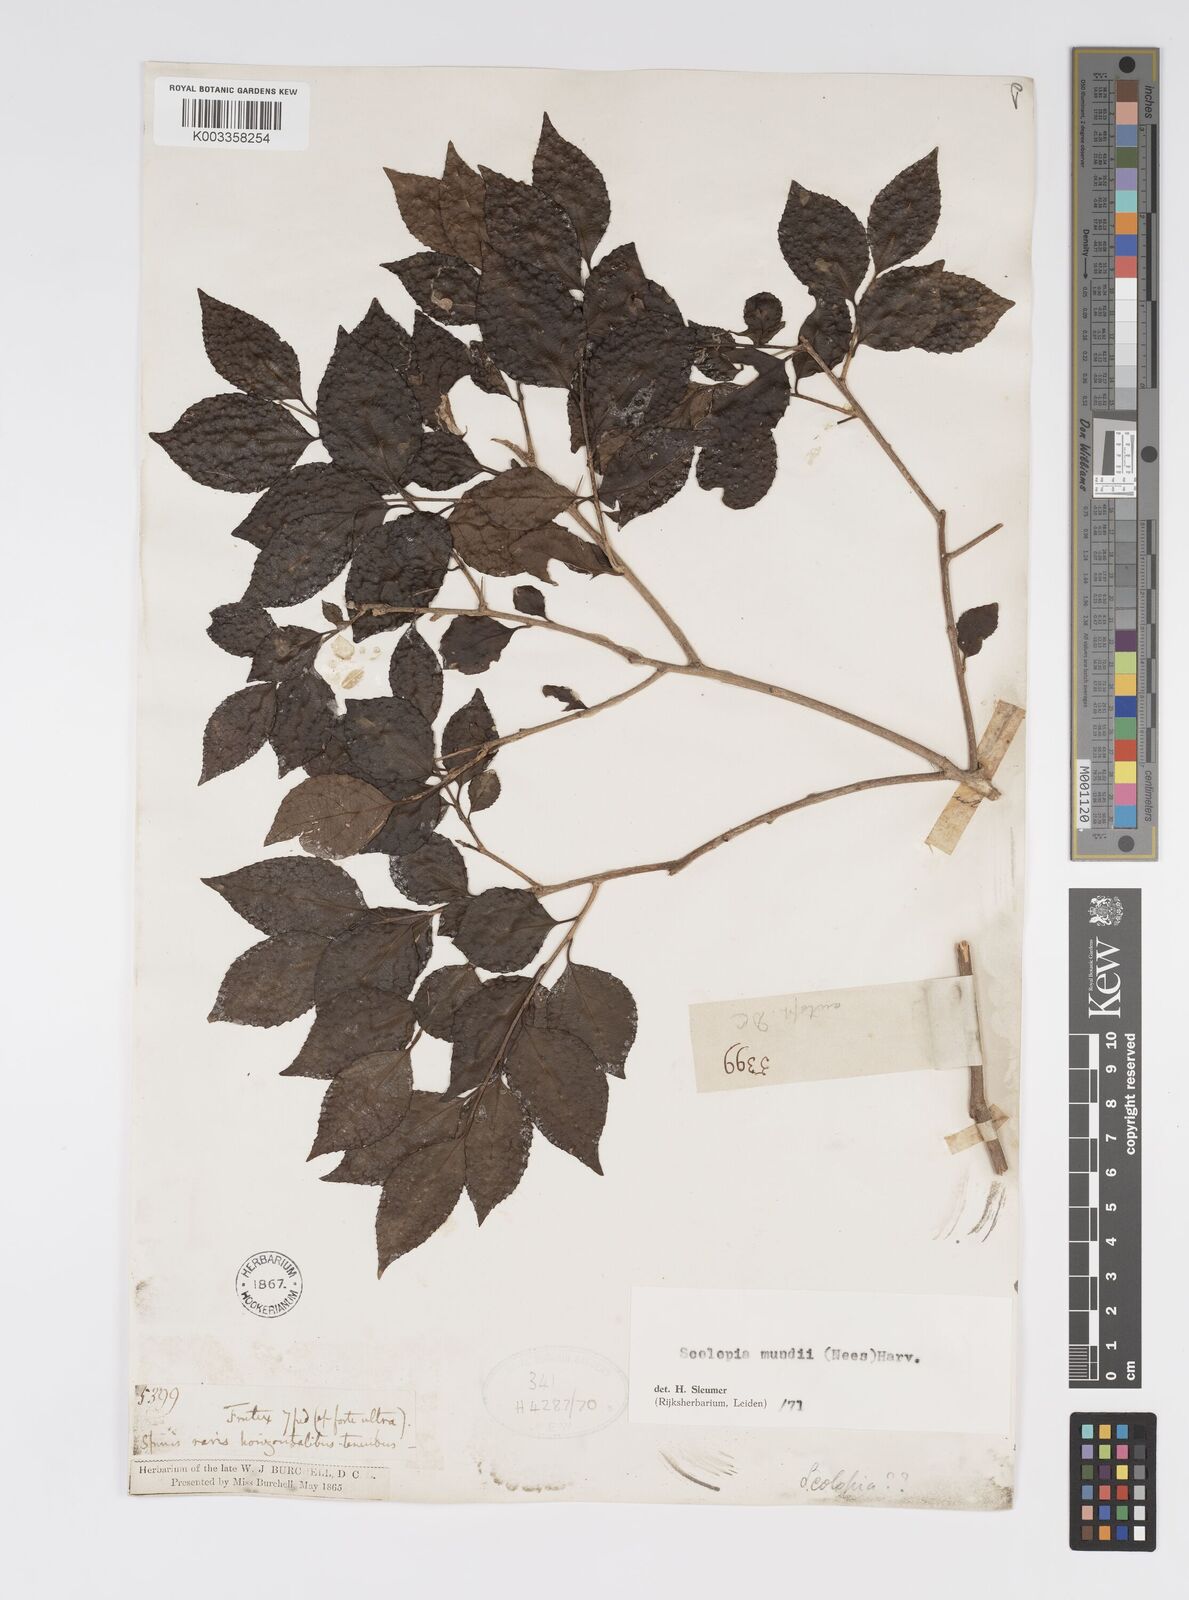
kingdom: Plantae
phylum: Tracheophyta
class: Magnoliopsida
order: Malpighiales
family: Salicaceae
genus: Scolopia
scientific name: Scolopia mundii
